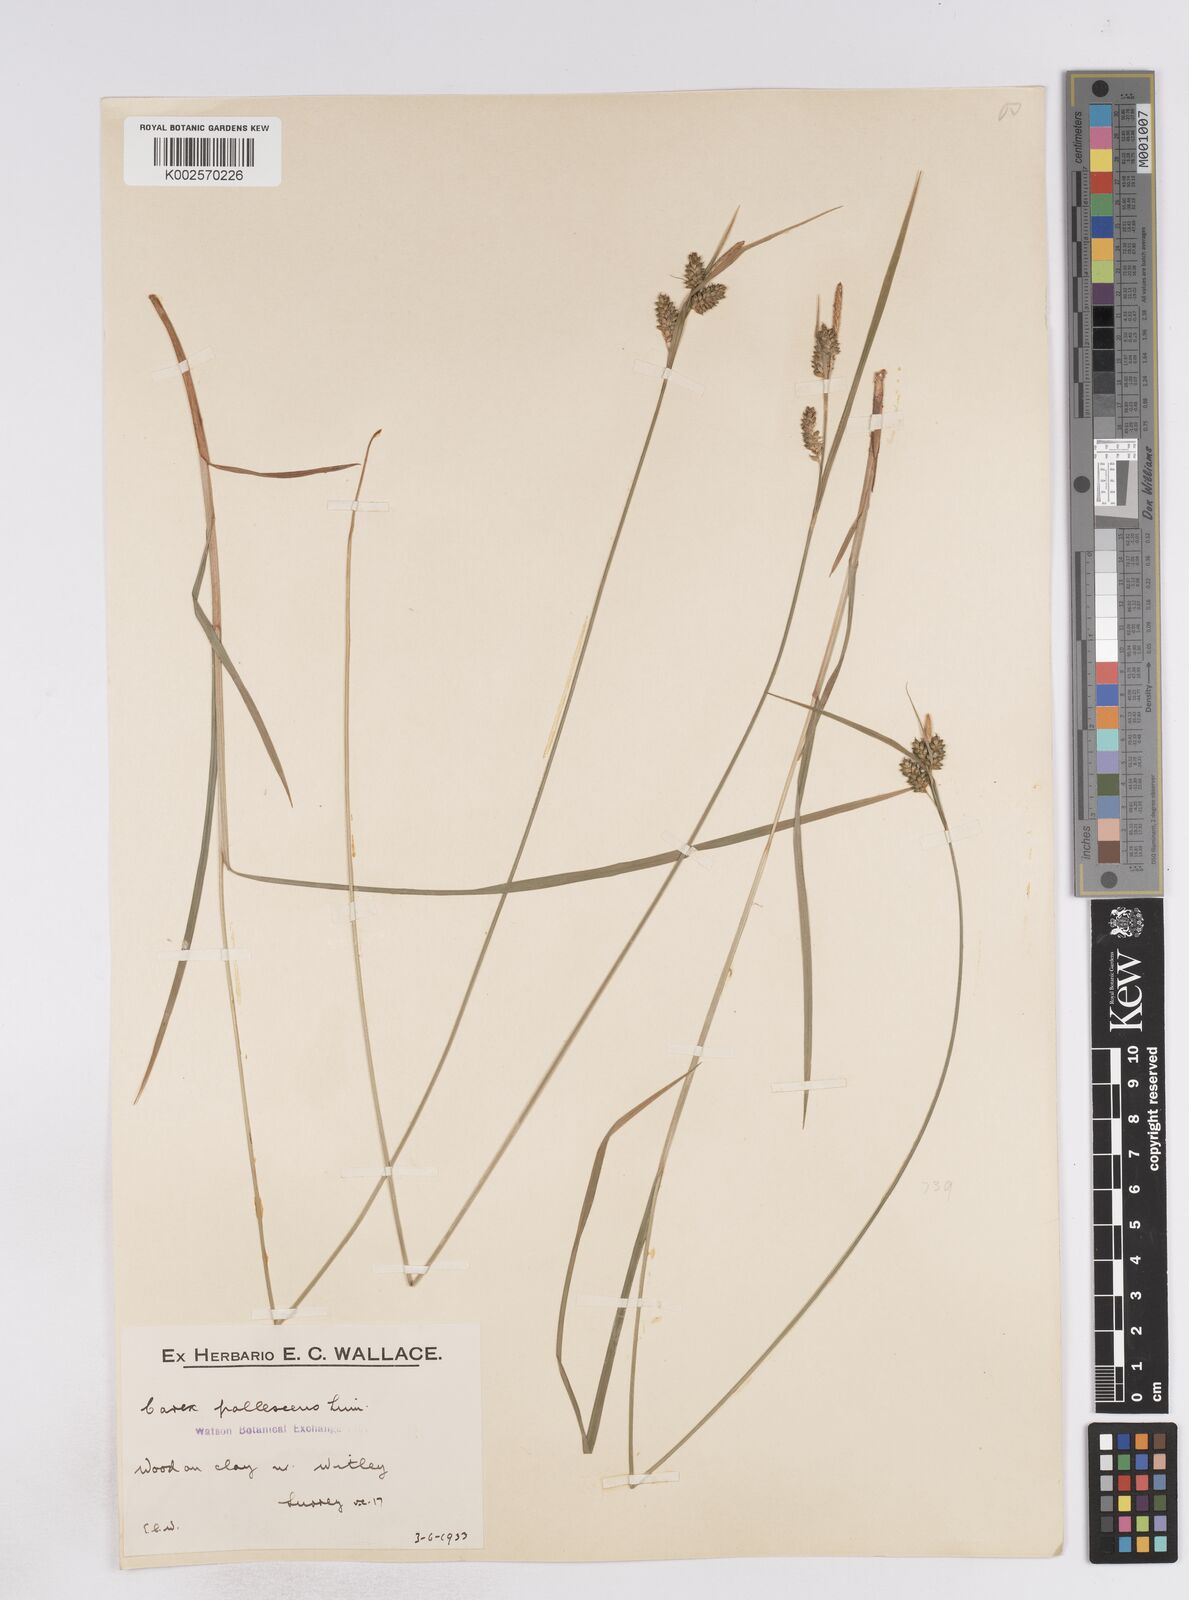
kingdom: Plantae
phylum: Tracheophyta
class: Liliopsida
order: Poales
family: Cyperaceae
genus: Carex
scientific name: Carex pallescens
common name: Pale sedge
